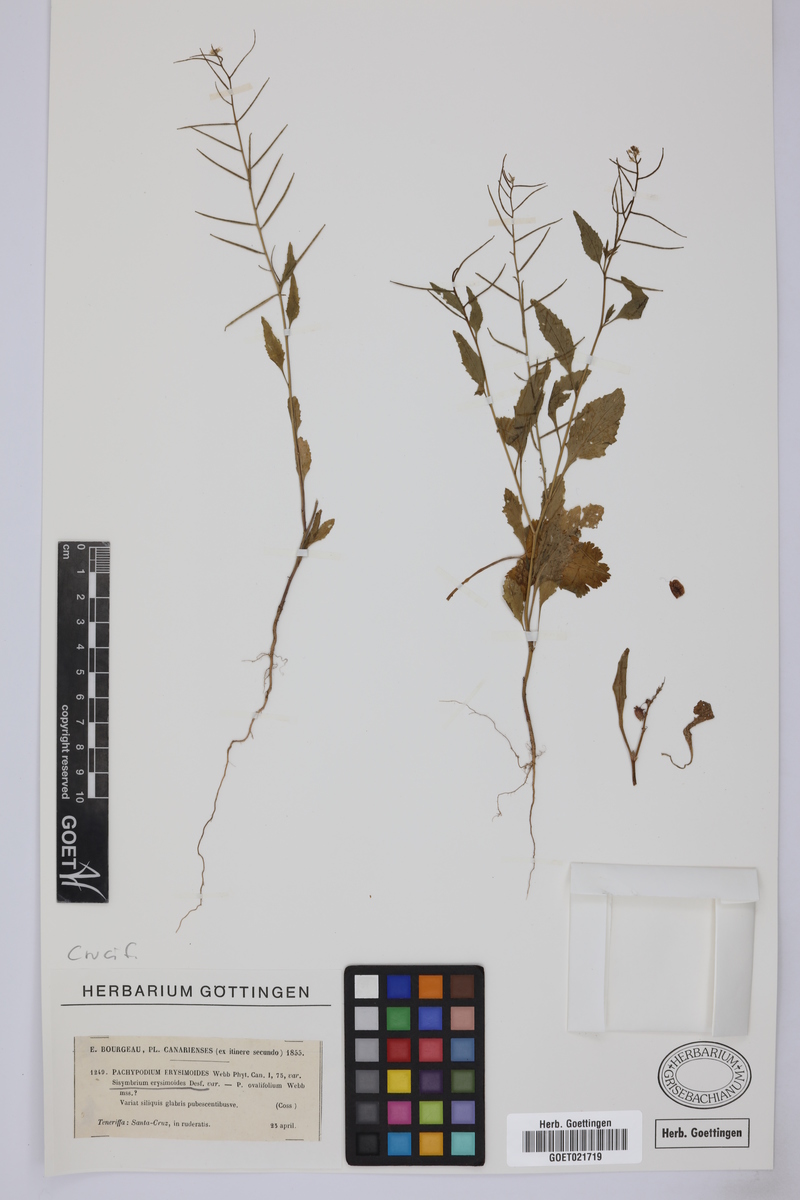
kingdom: Plantae
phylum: Tracheophyta
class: Magnoliopsida
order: Brassicales
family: Brassicaceae
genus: Sisymbrium
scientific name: Sisymbrium erysimoides
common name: French rocket
